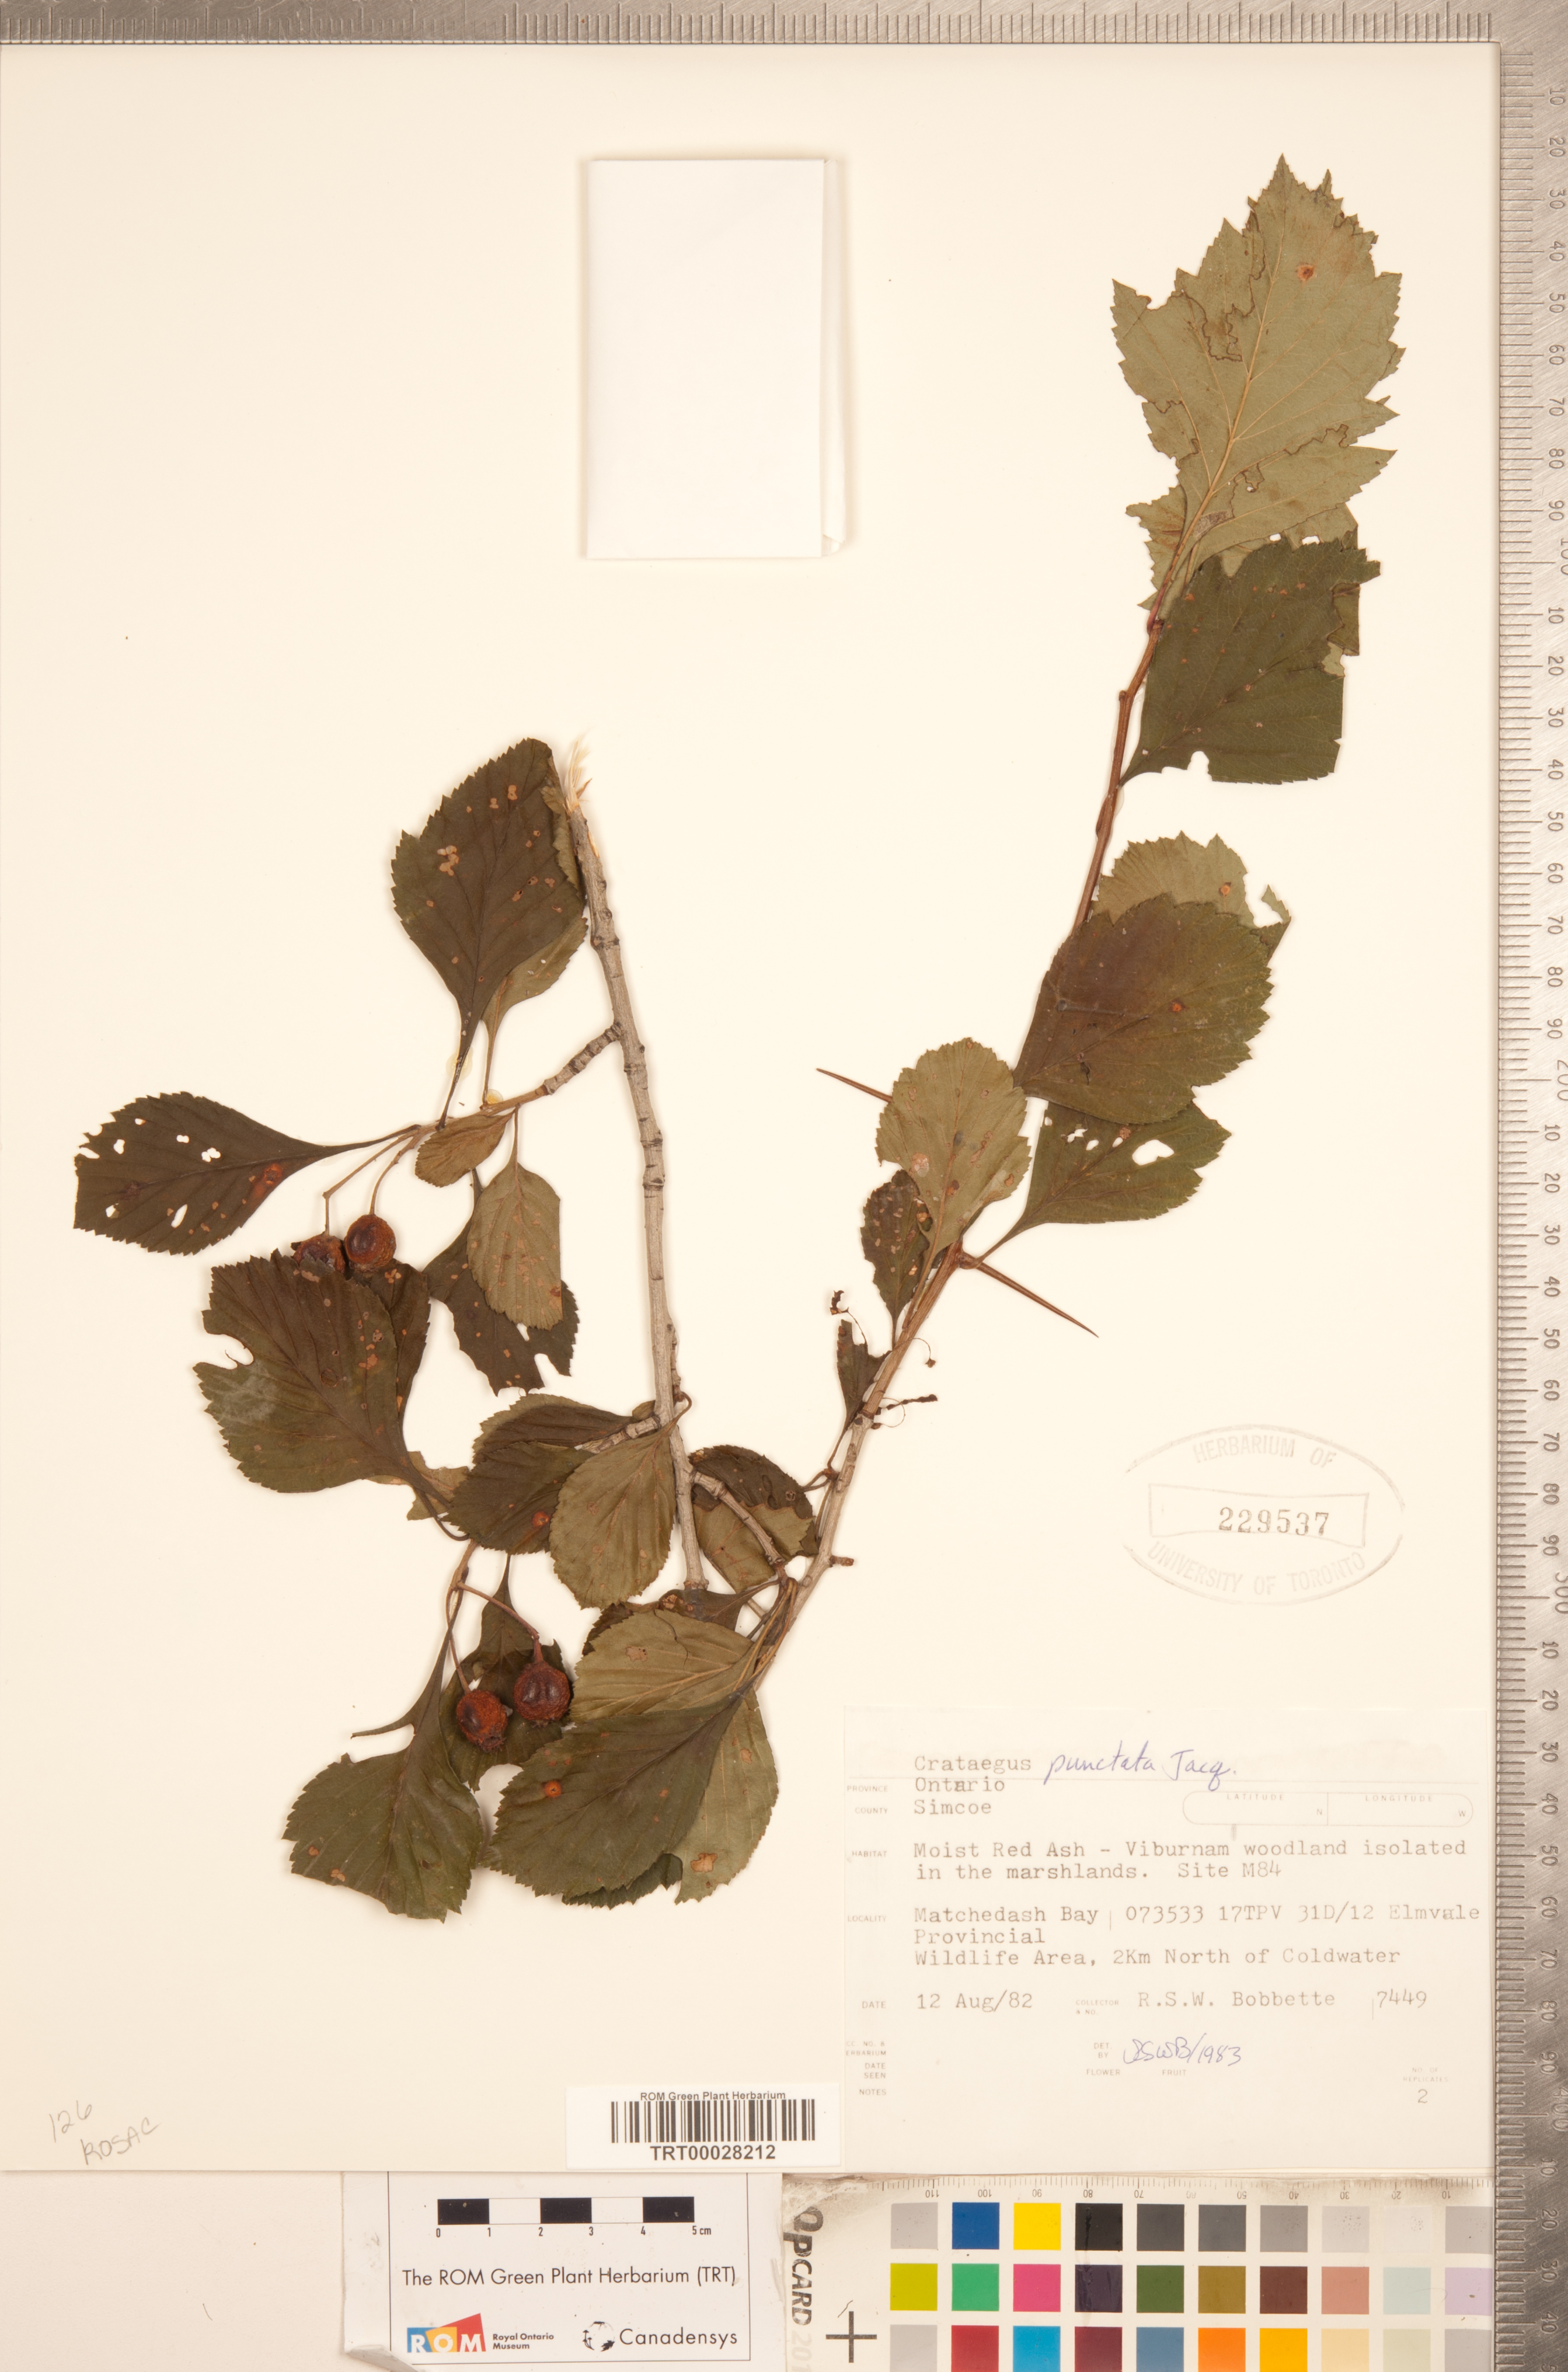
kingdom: Plantae
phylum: Tracheophyta
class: Magnoliopsida
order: Rosales
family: Rosaceae
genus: Crataegus
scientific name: Crataegus punctata
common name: Dotted hawthorn
